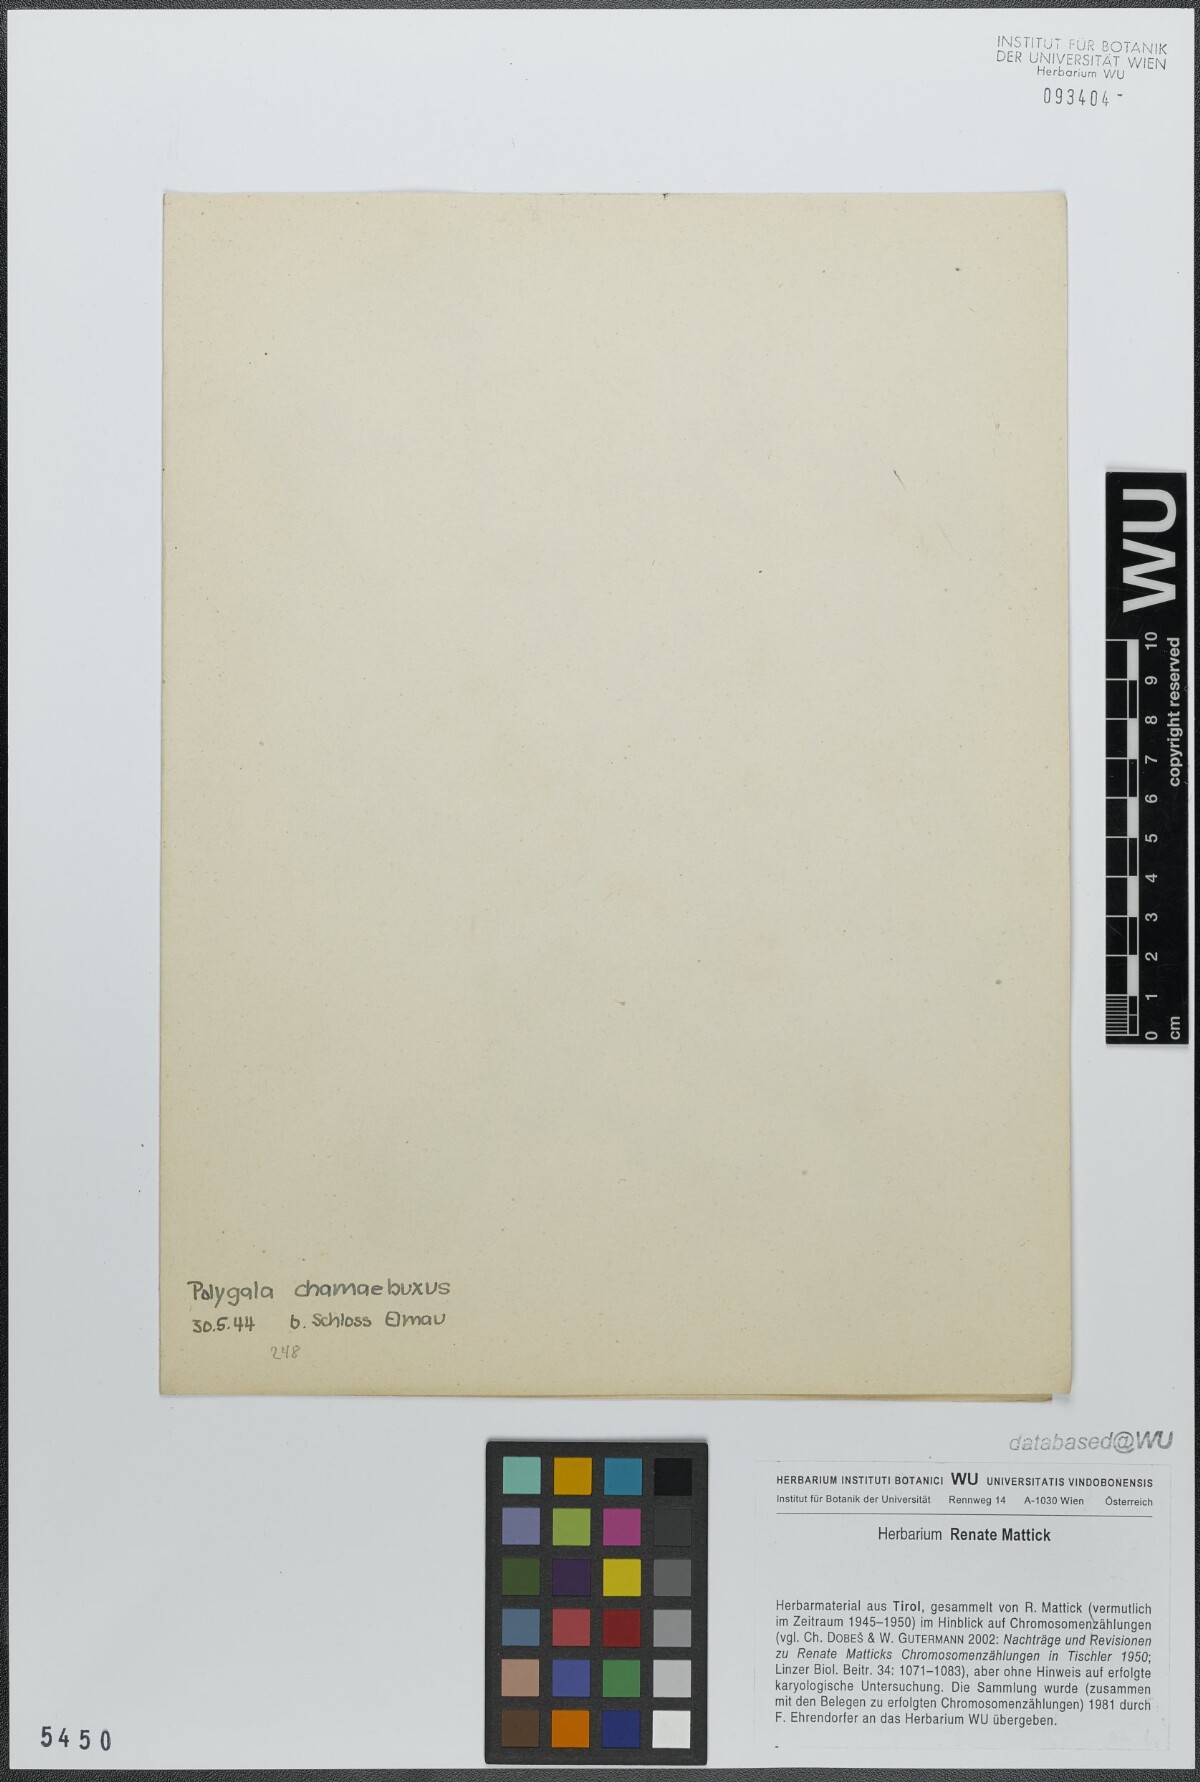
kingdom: Plantae
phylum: Tracheophyta
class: Magnoliopsida
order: Fabales
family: Polygalaceae
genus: Polygaloides
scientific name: Polygaloides chamaebuxus
